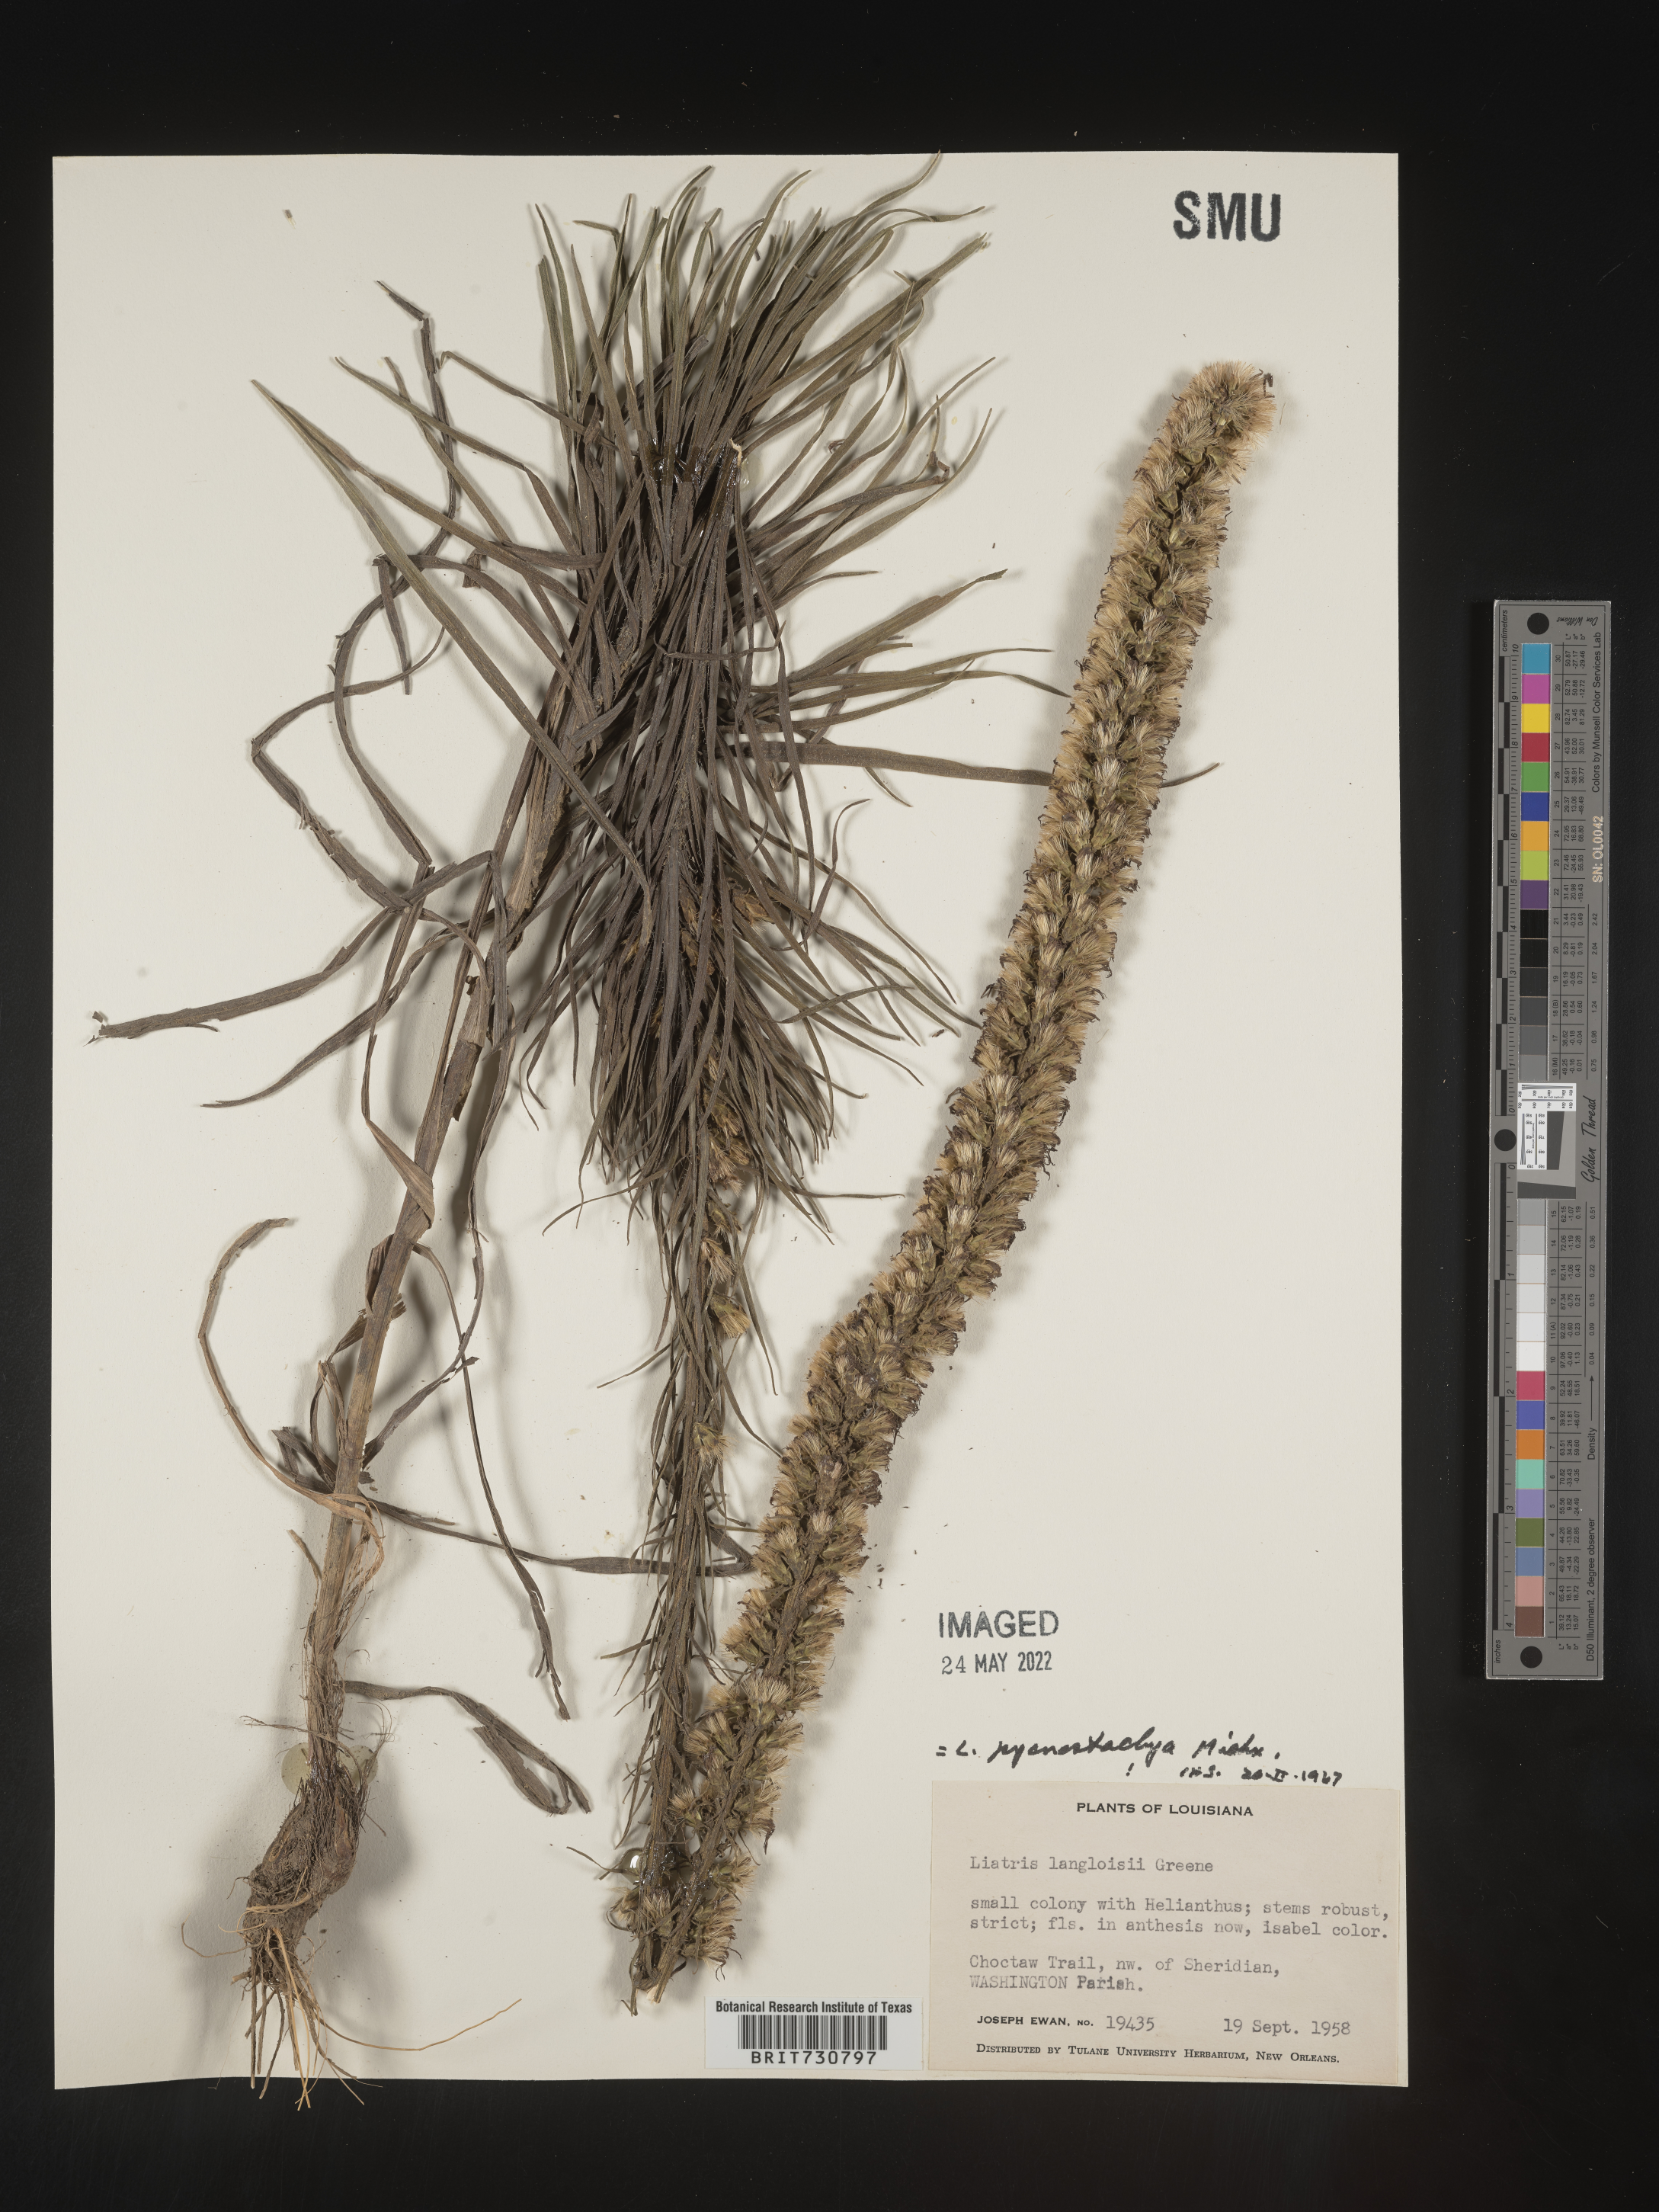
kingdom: Plantae
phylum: Tracheophyta
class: Magnoliopsida
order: Asterales
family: Asteraceae
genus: Liatris
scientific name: Liatris pycnostachya
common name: Cattail gayfeather
